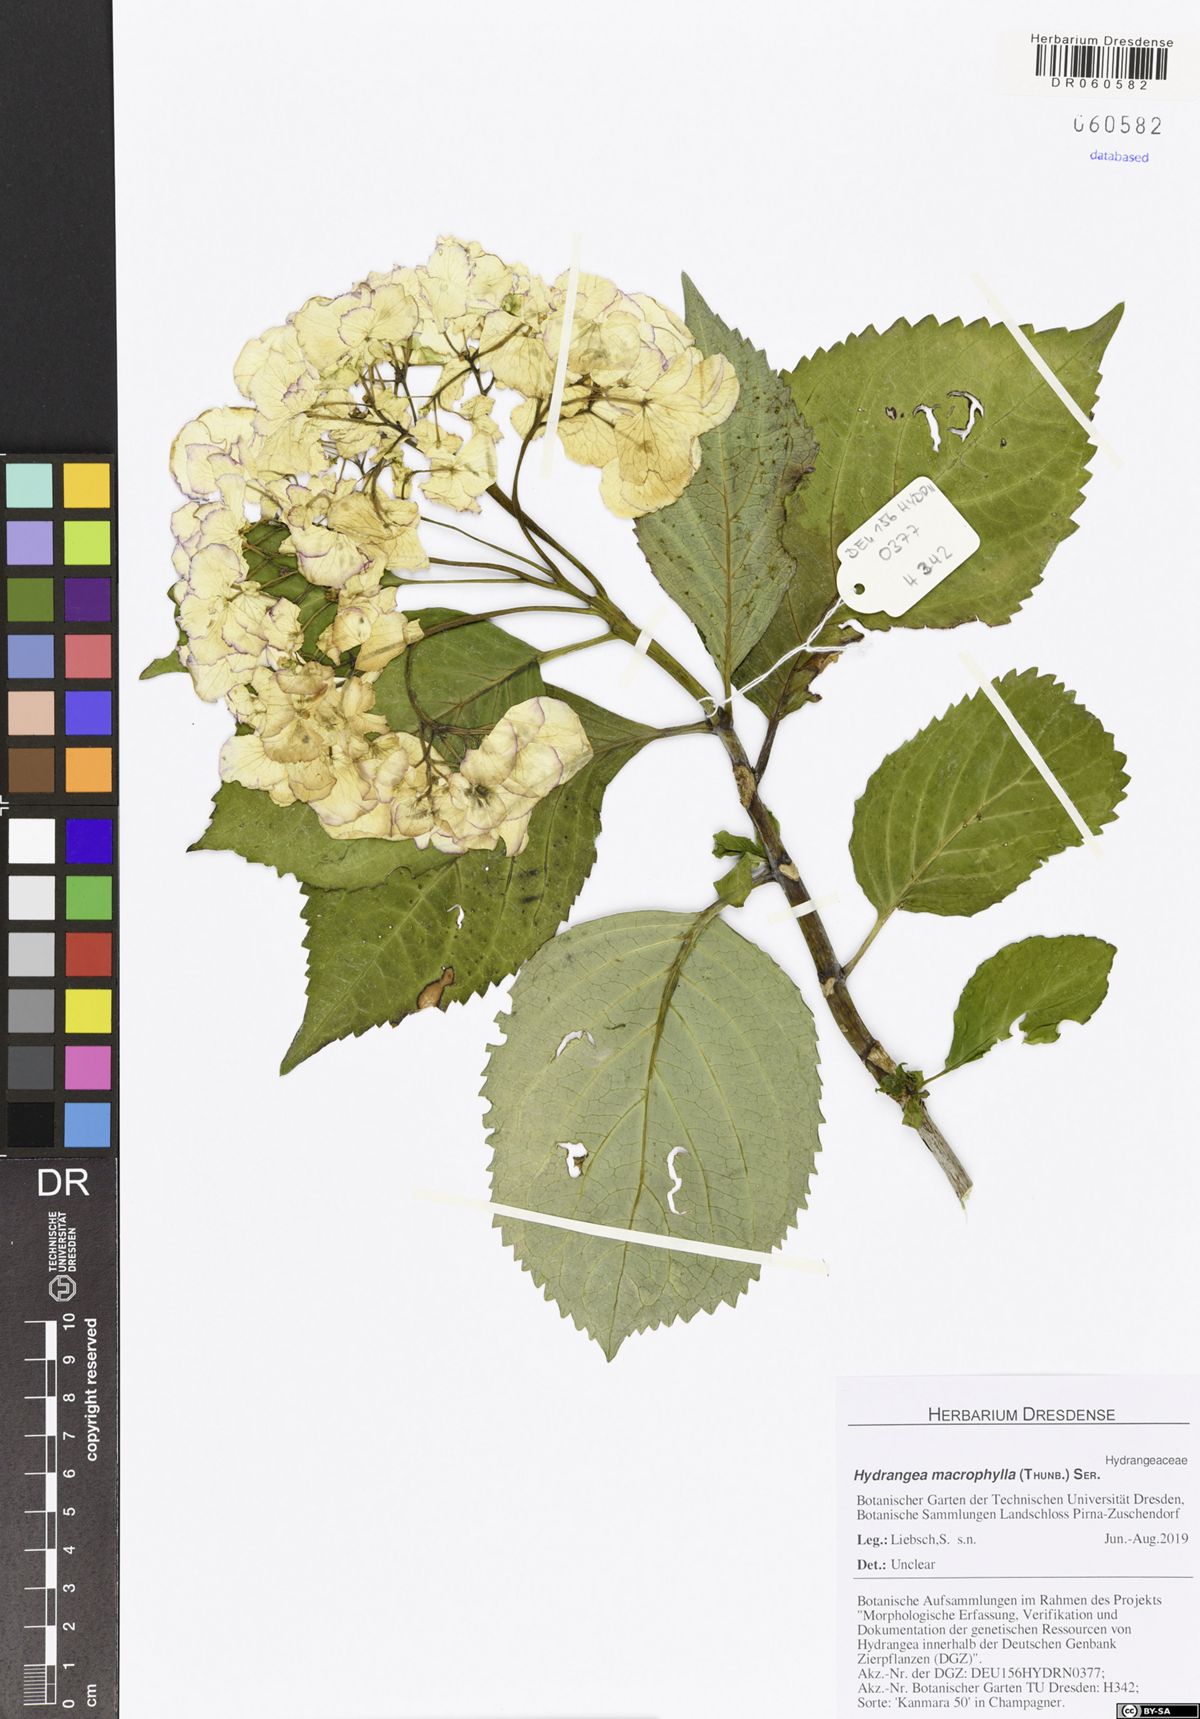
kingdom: Plantae
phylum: Tracheophyta
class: Magnoliopsida
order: Cornales
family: Hydrangeaceae
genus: Hydrangea
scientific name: Hydrangea macrophylla
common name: Hydrangea
